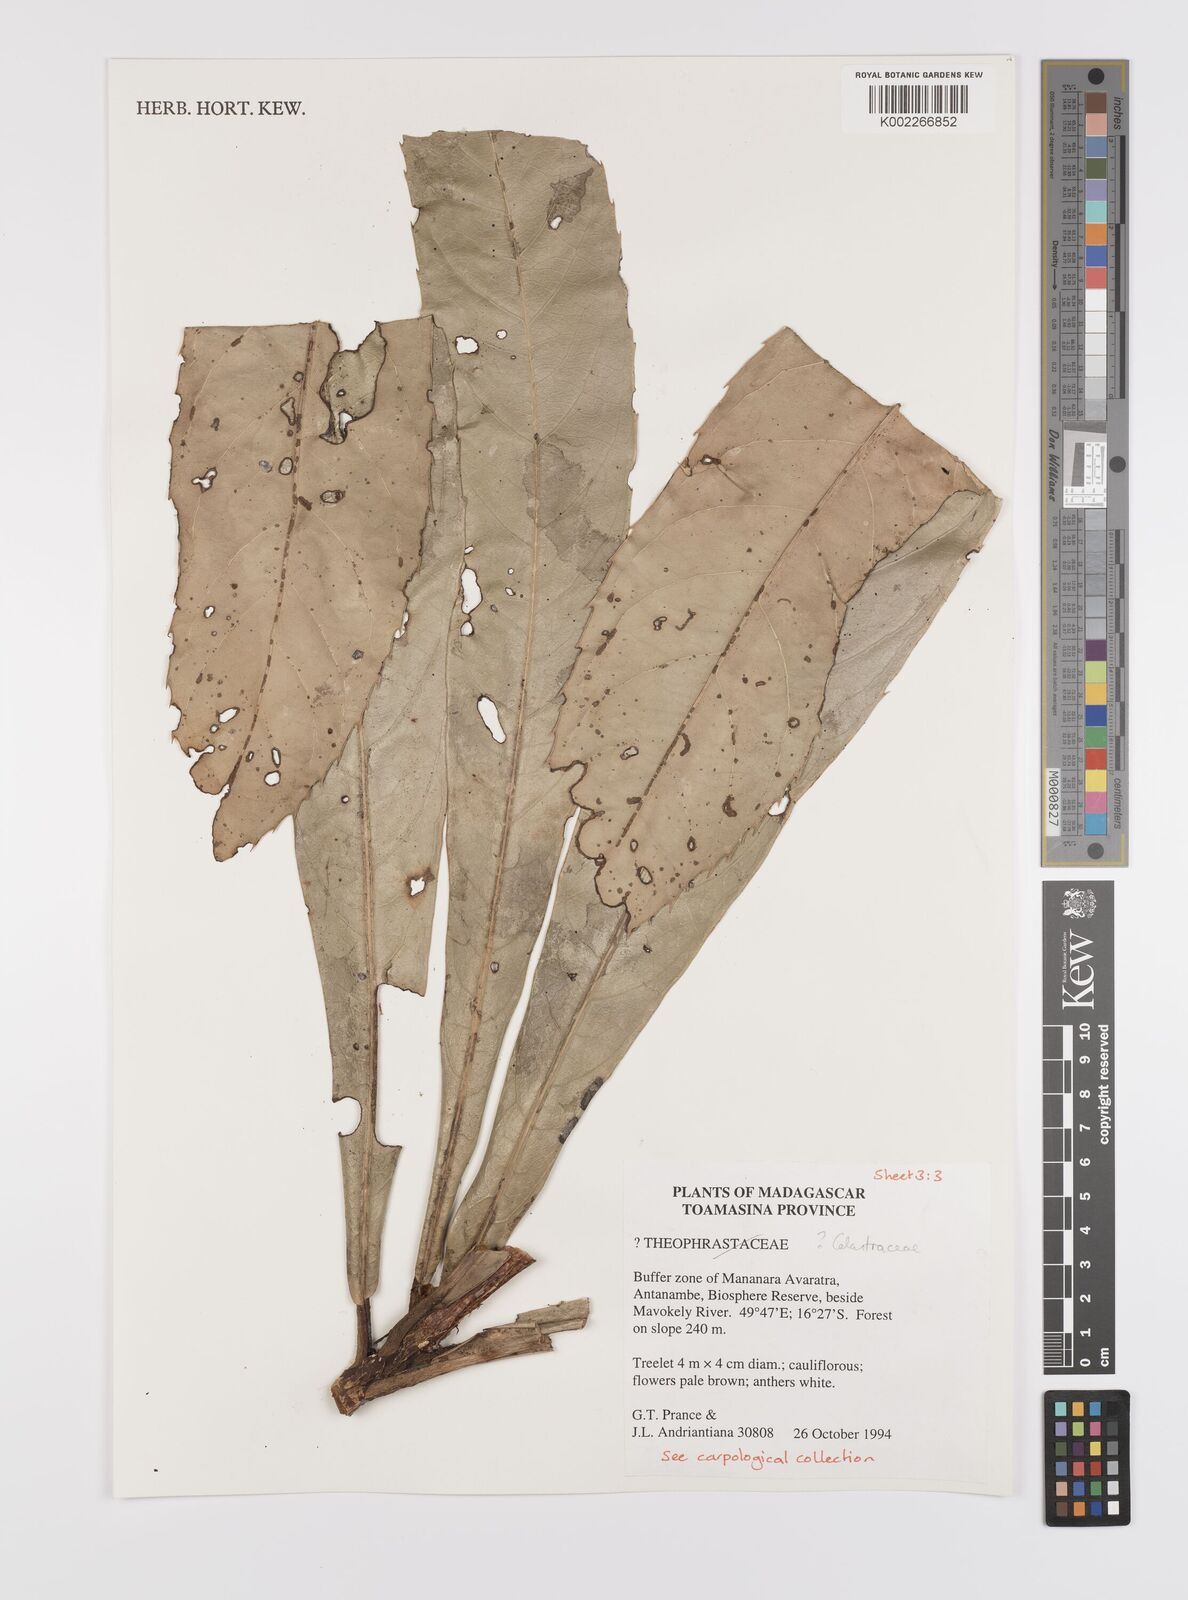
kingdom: Plantae
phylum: Tracheophyta
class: Magnoliopsida
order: Celastrales
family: Celastraceae
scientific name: Celastraceae
